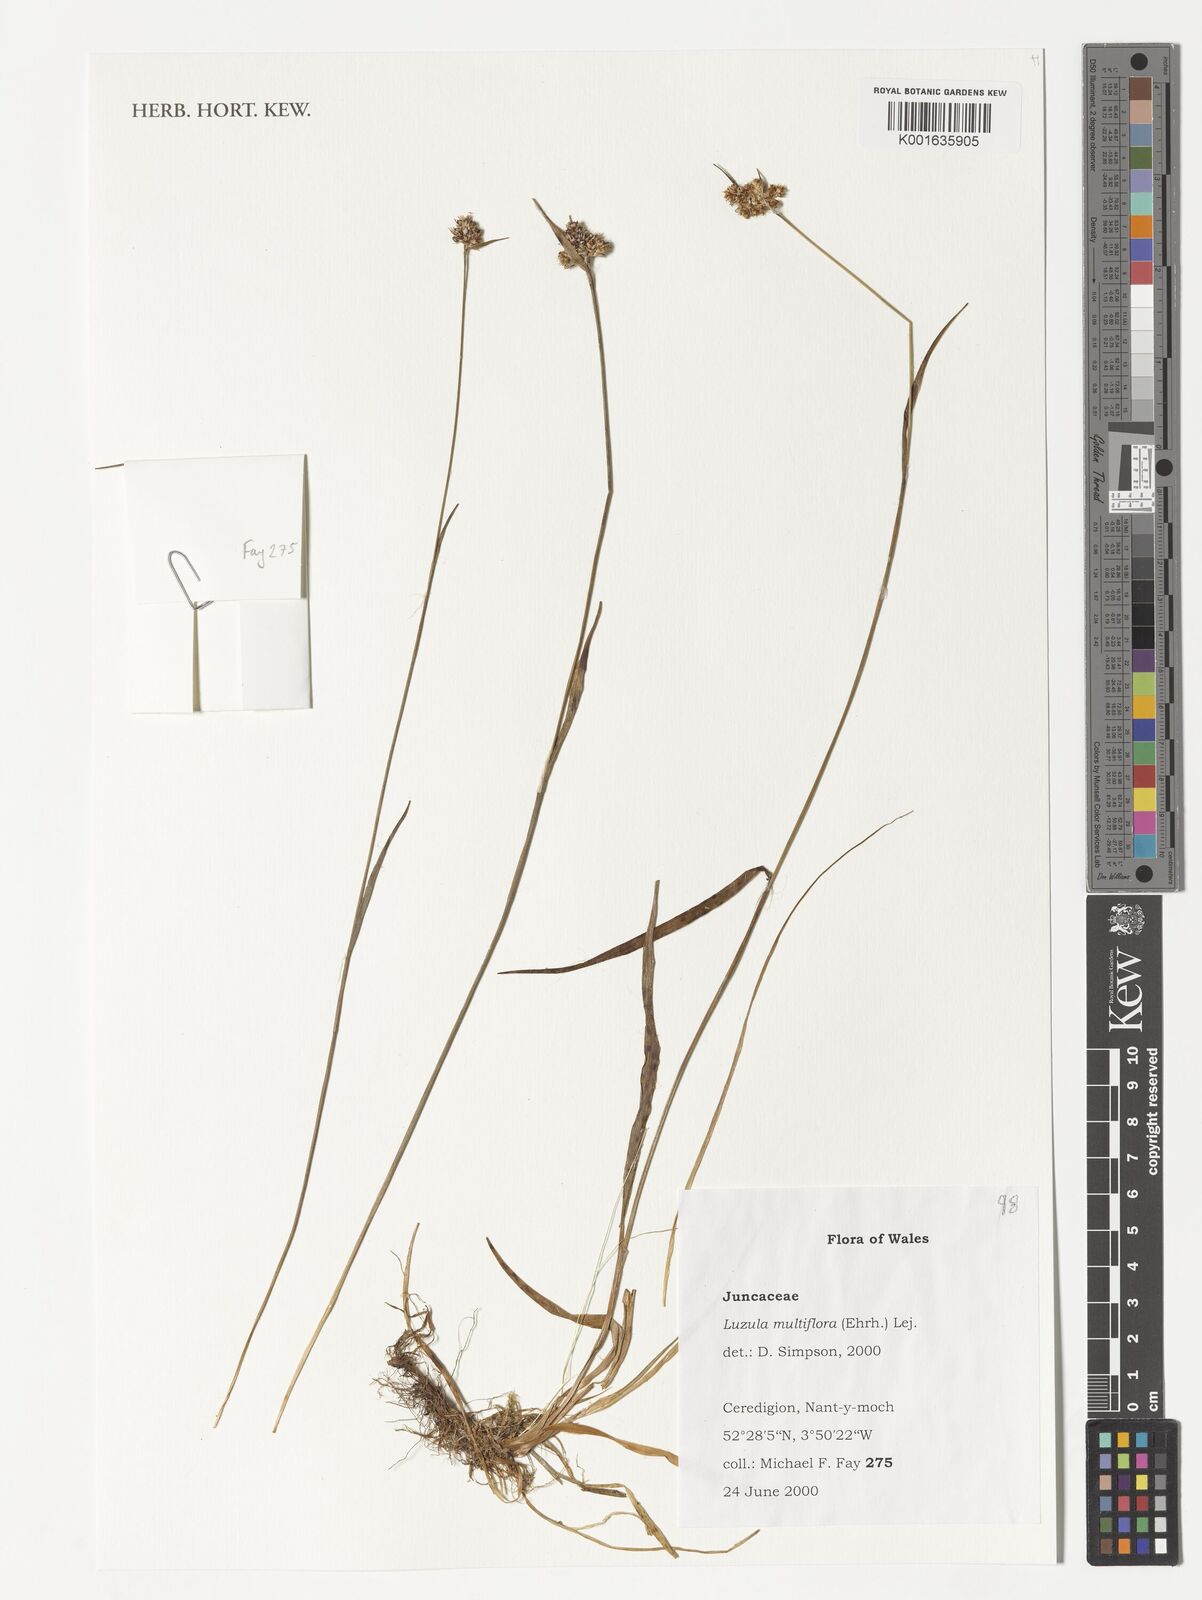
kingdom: Plantae
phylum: Tracheophyta
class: Liliopsida
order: Poales
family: Juncaceae
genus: Luzula
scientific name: Luzula multiflora
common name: Heath wood-rush
